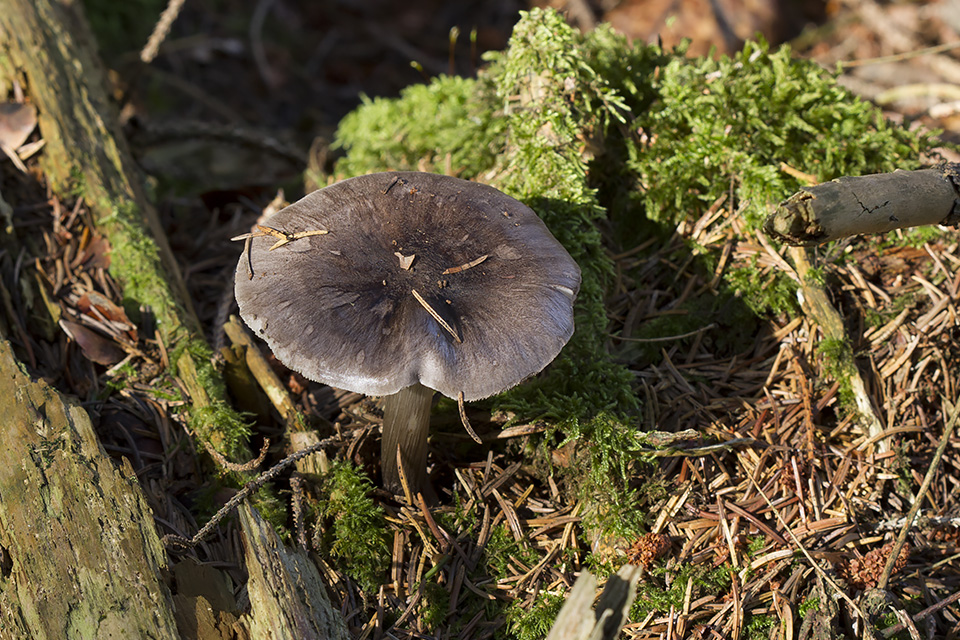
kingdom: Fungi
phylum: Basidiomycota
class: Agaricomycetes
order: Agaricales
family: Pluteaceae
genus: Pluteus
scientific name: Pluteus pouzarianus
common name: plantage-skærmhat
